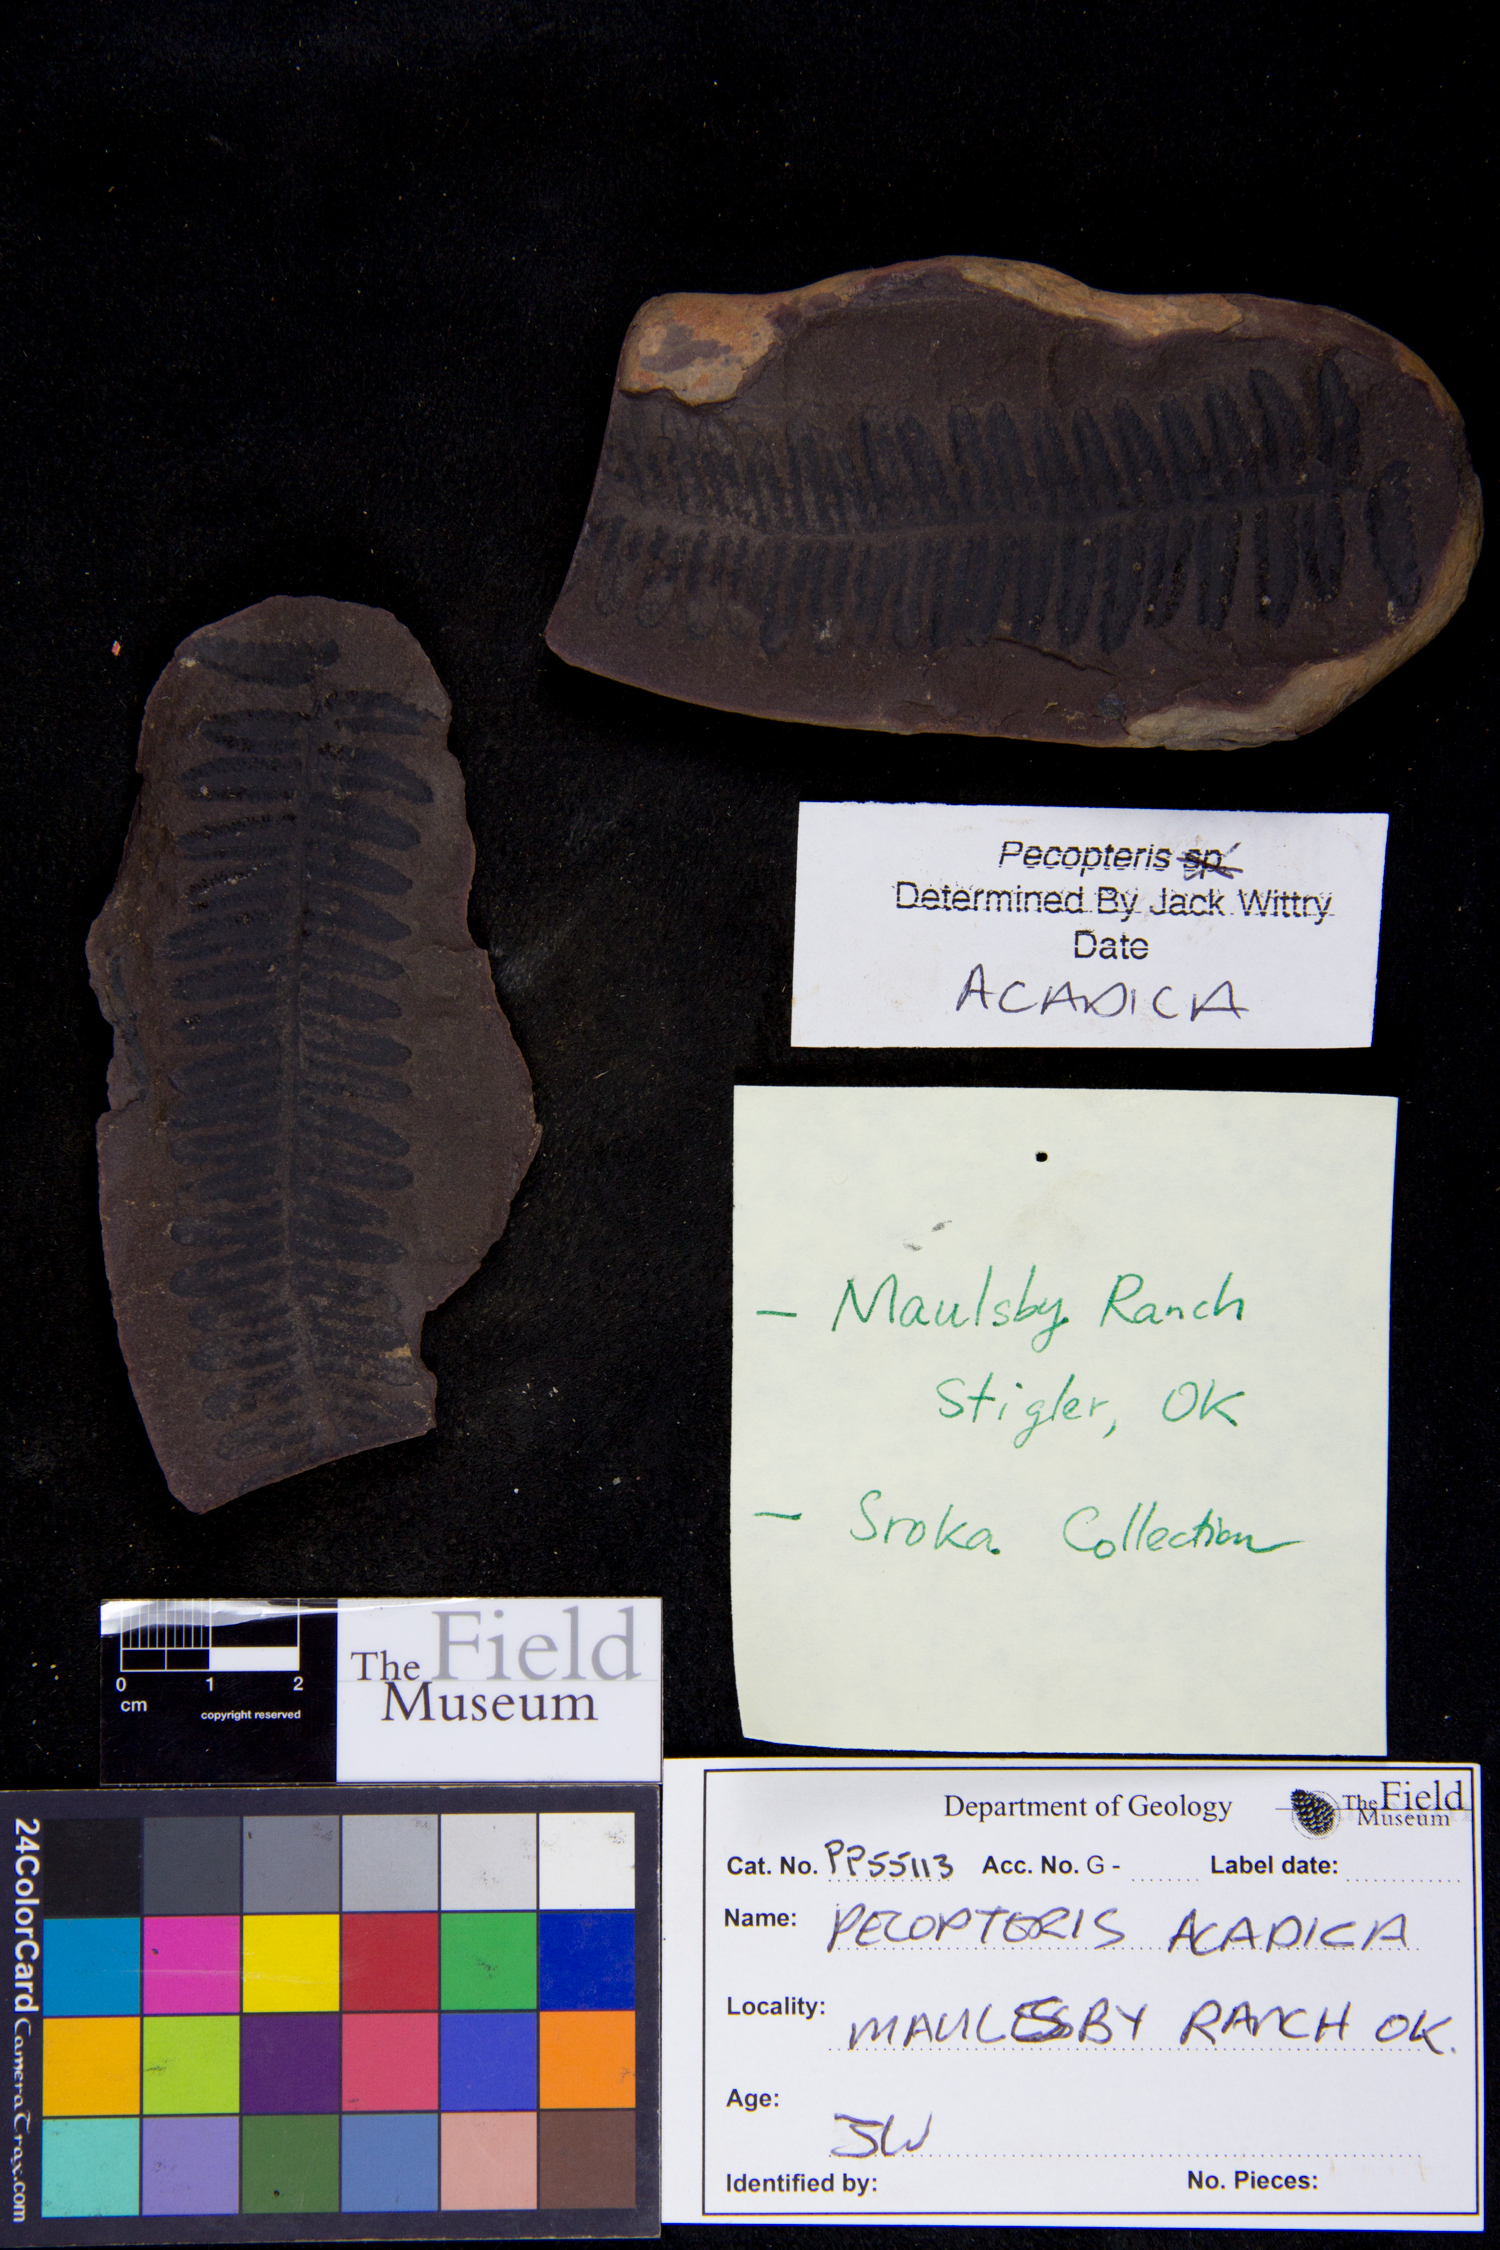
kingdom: Plantae
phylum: Tracheophyta
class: Polypodiopsida
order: Marattiales
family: Asterothecaceae
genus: Pecopteris
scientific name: Pecopteris
